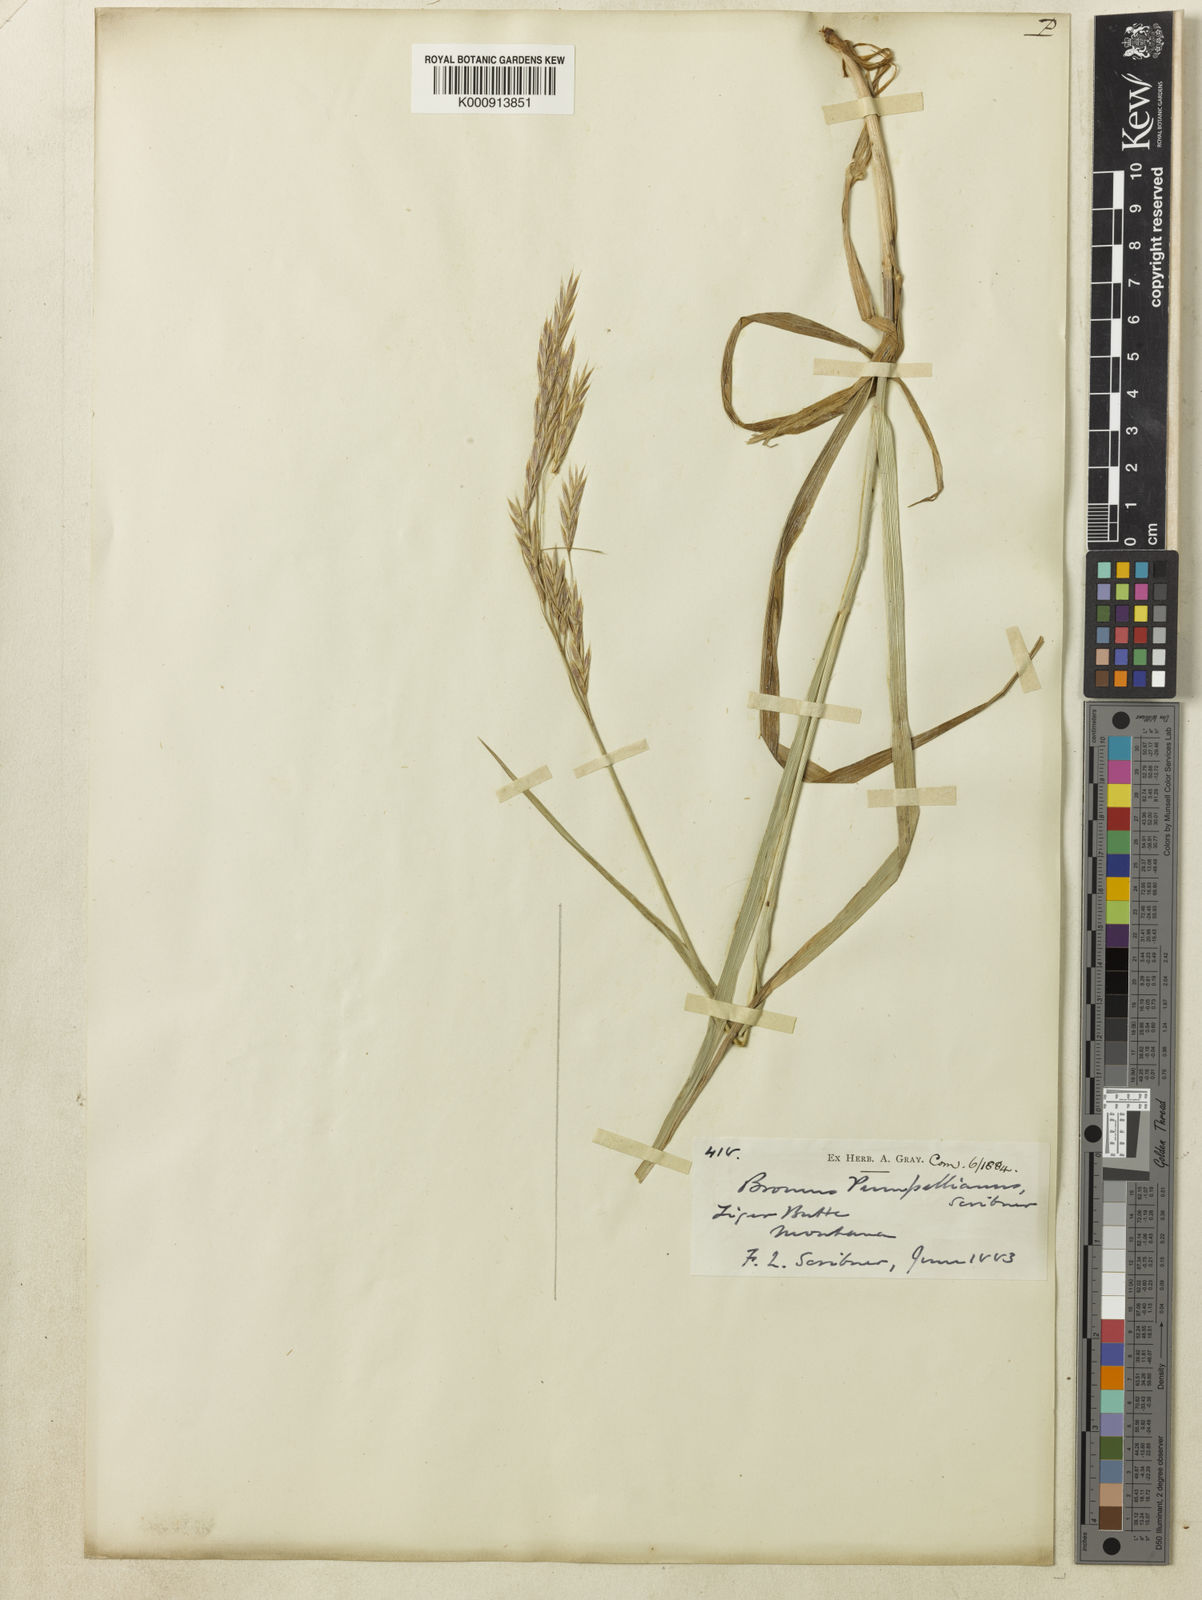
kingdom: Plantae
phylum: Tracheophyta
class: Liliopsida
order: Poales
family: Poaceae
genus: Bromus
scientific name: Bromus pumpellianus
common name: Pumpelly's brome
